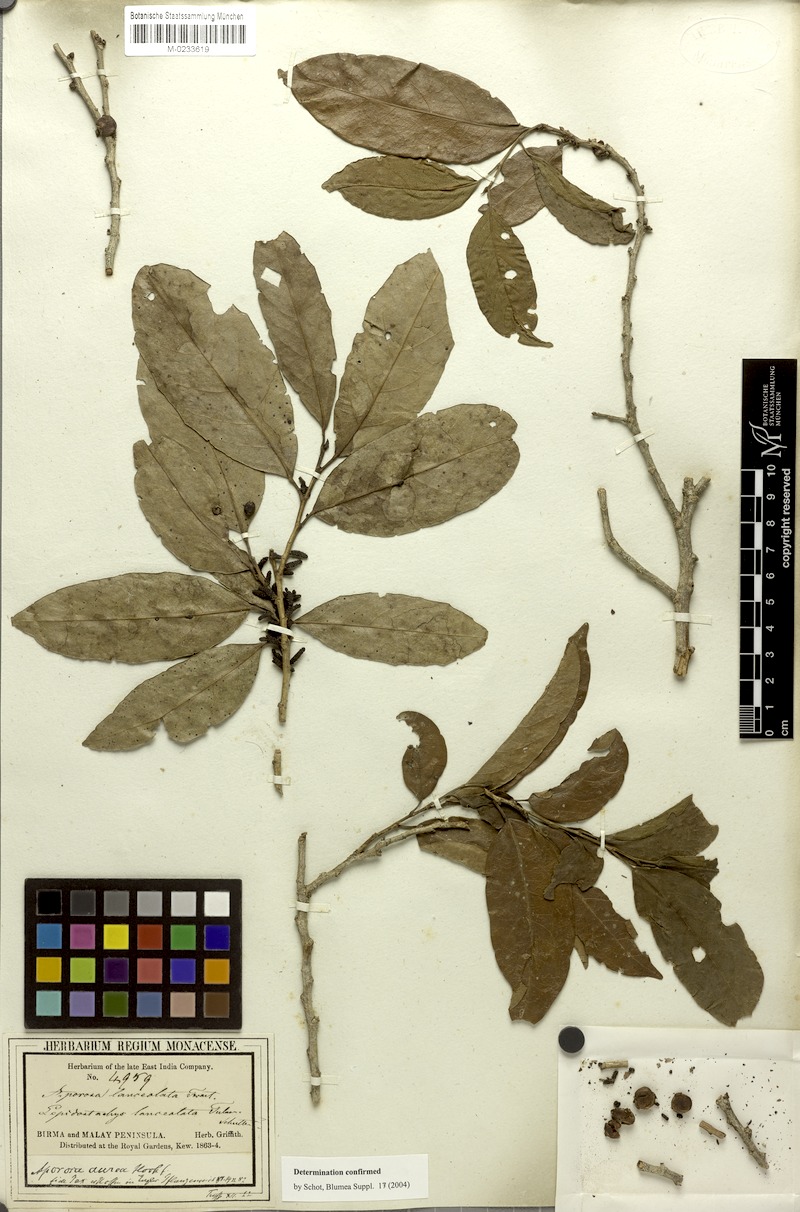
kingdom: Plantae
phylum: Tracheophyta
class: Magnoliopsida
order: Malpighiales
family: Phyllanthaceae
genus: Aporosa
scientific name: Aporosa lanceolata
